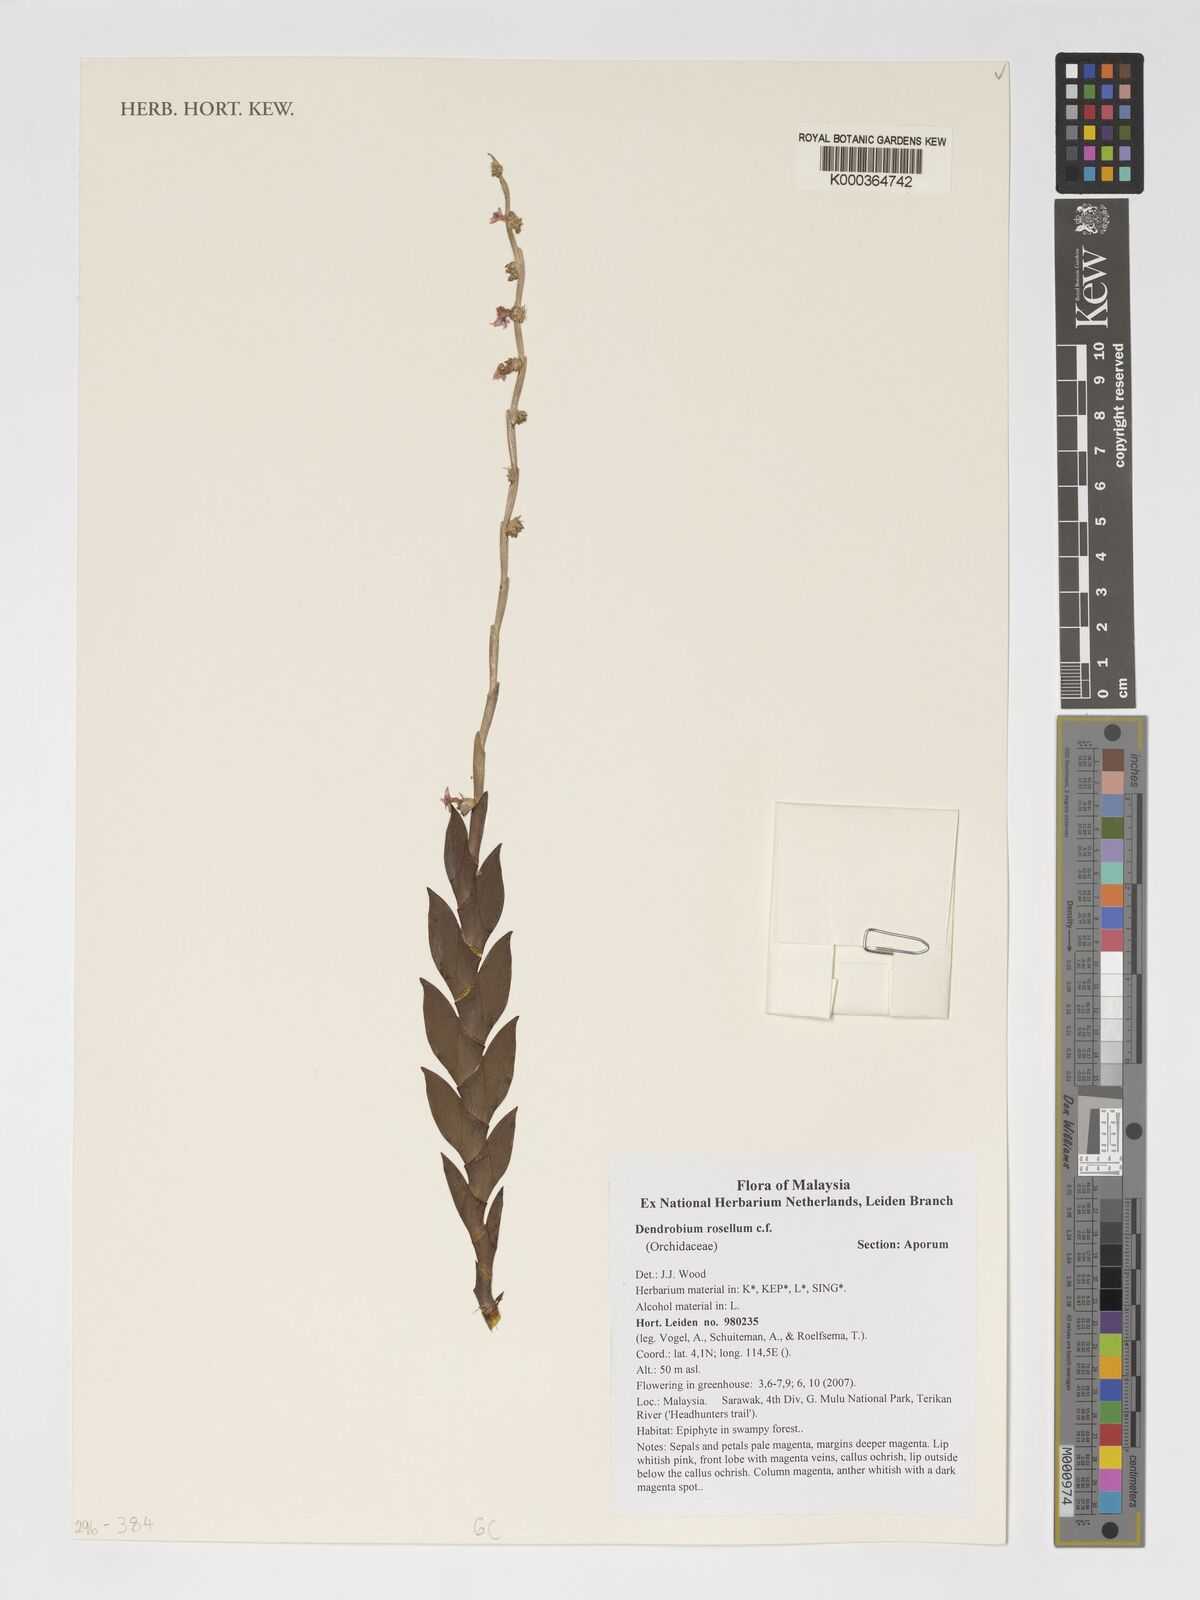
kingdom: Plantae
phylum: Tracheophyta
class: Liliopsida
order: Asparagales
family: Orchidaceae
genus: Dendrobium
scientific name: Dendrobium
